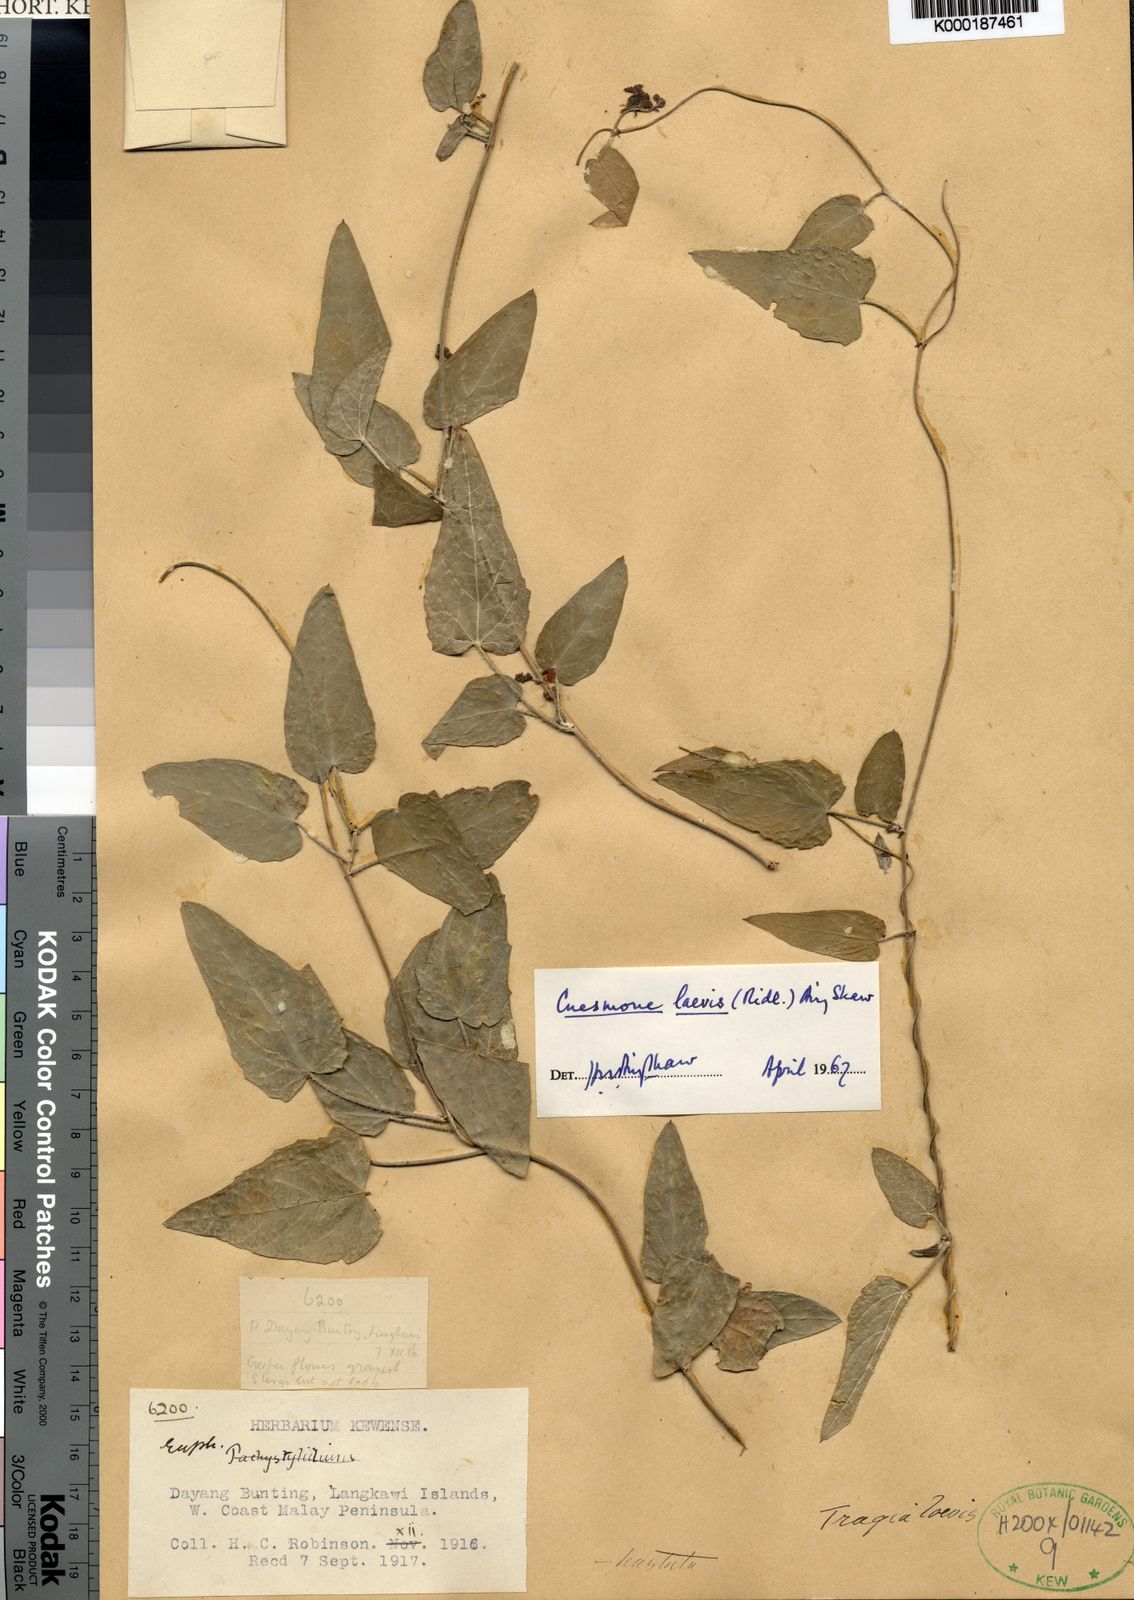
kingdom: Plantae
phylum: Tracheophyta
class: Magnoliopsida
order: Malpighiales
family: Euphorbiaceae
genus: Cnesmone
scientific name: Cnesmone laevis
